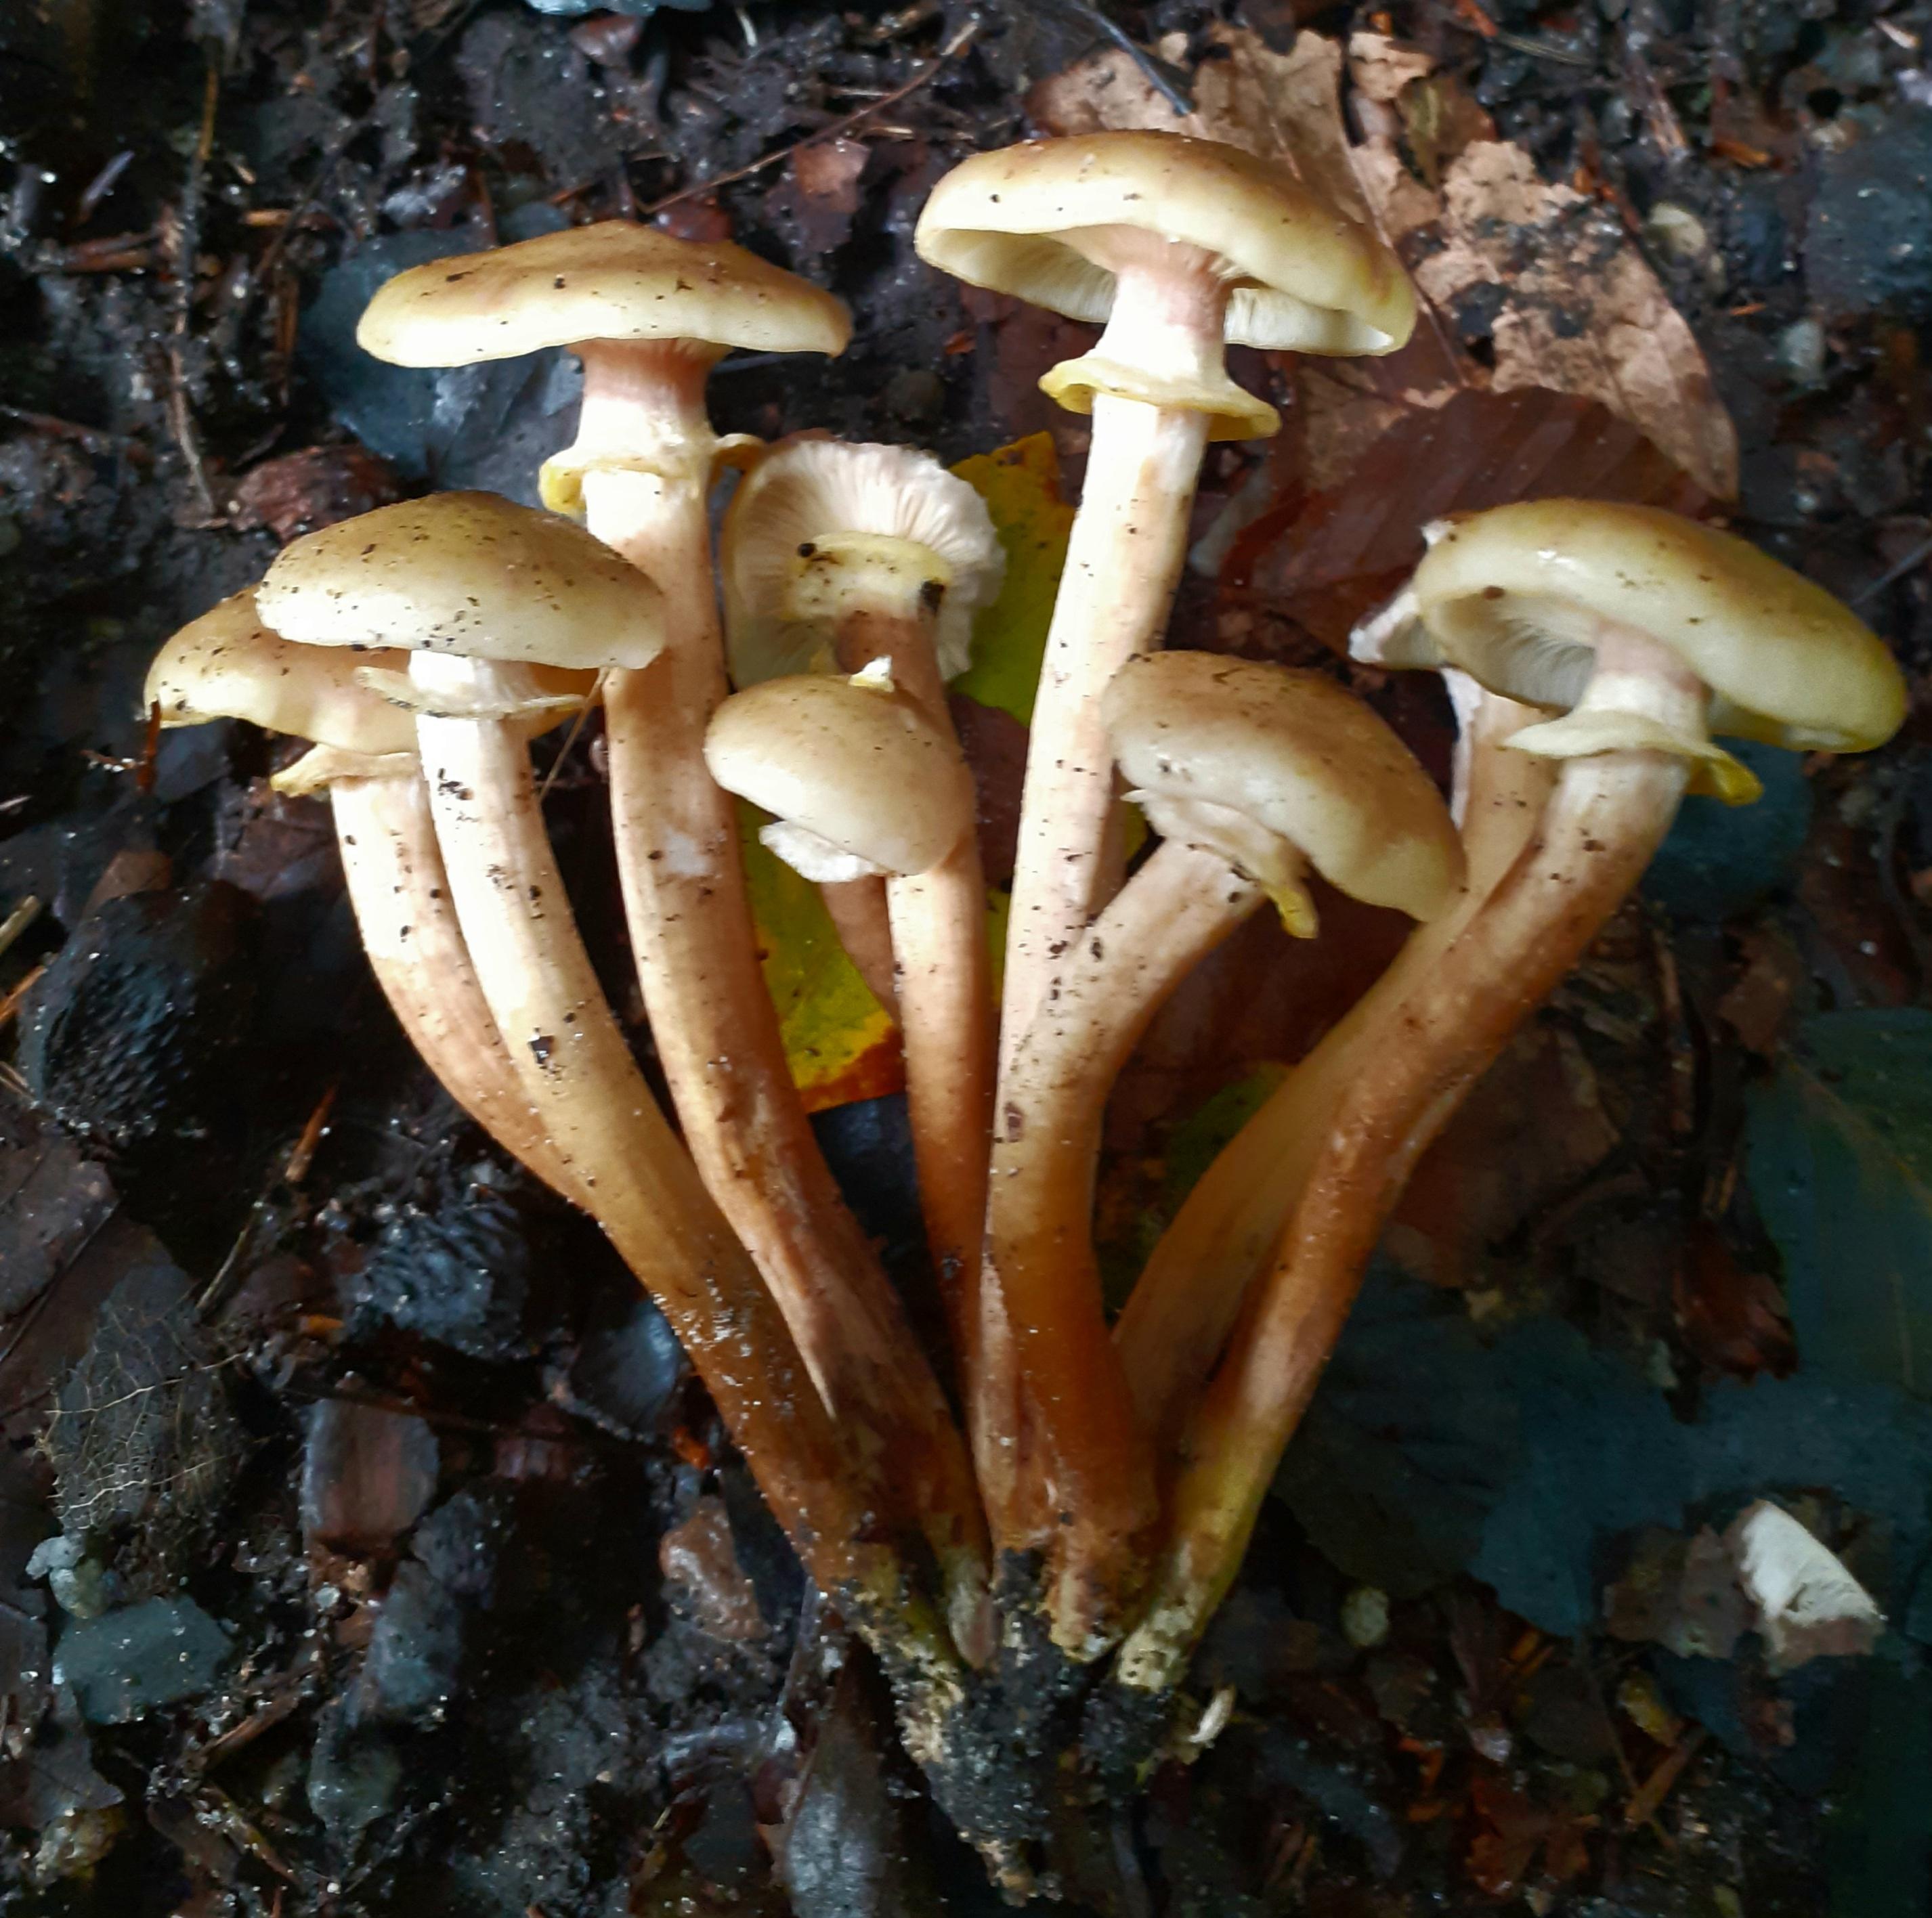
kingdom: Fungi
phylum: Basidiomycota
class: Agaricomycetes
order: Agaricales
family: Physalacriaceae
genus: Armillaria
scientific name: Armillaria mellea
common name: ægte honningsvamp
